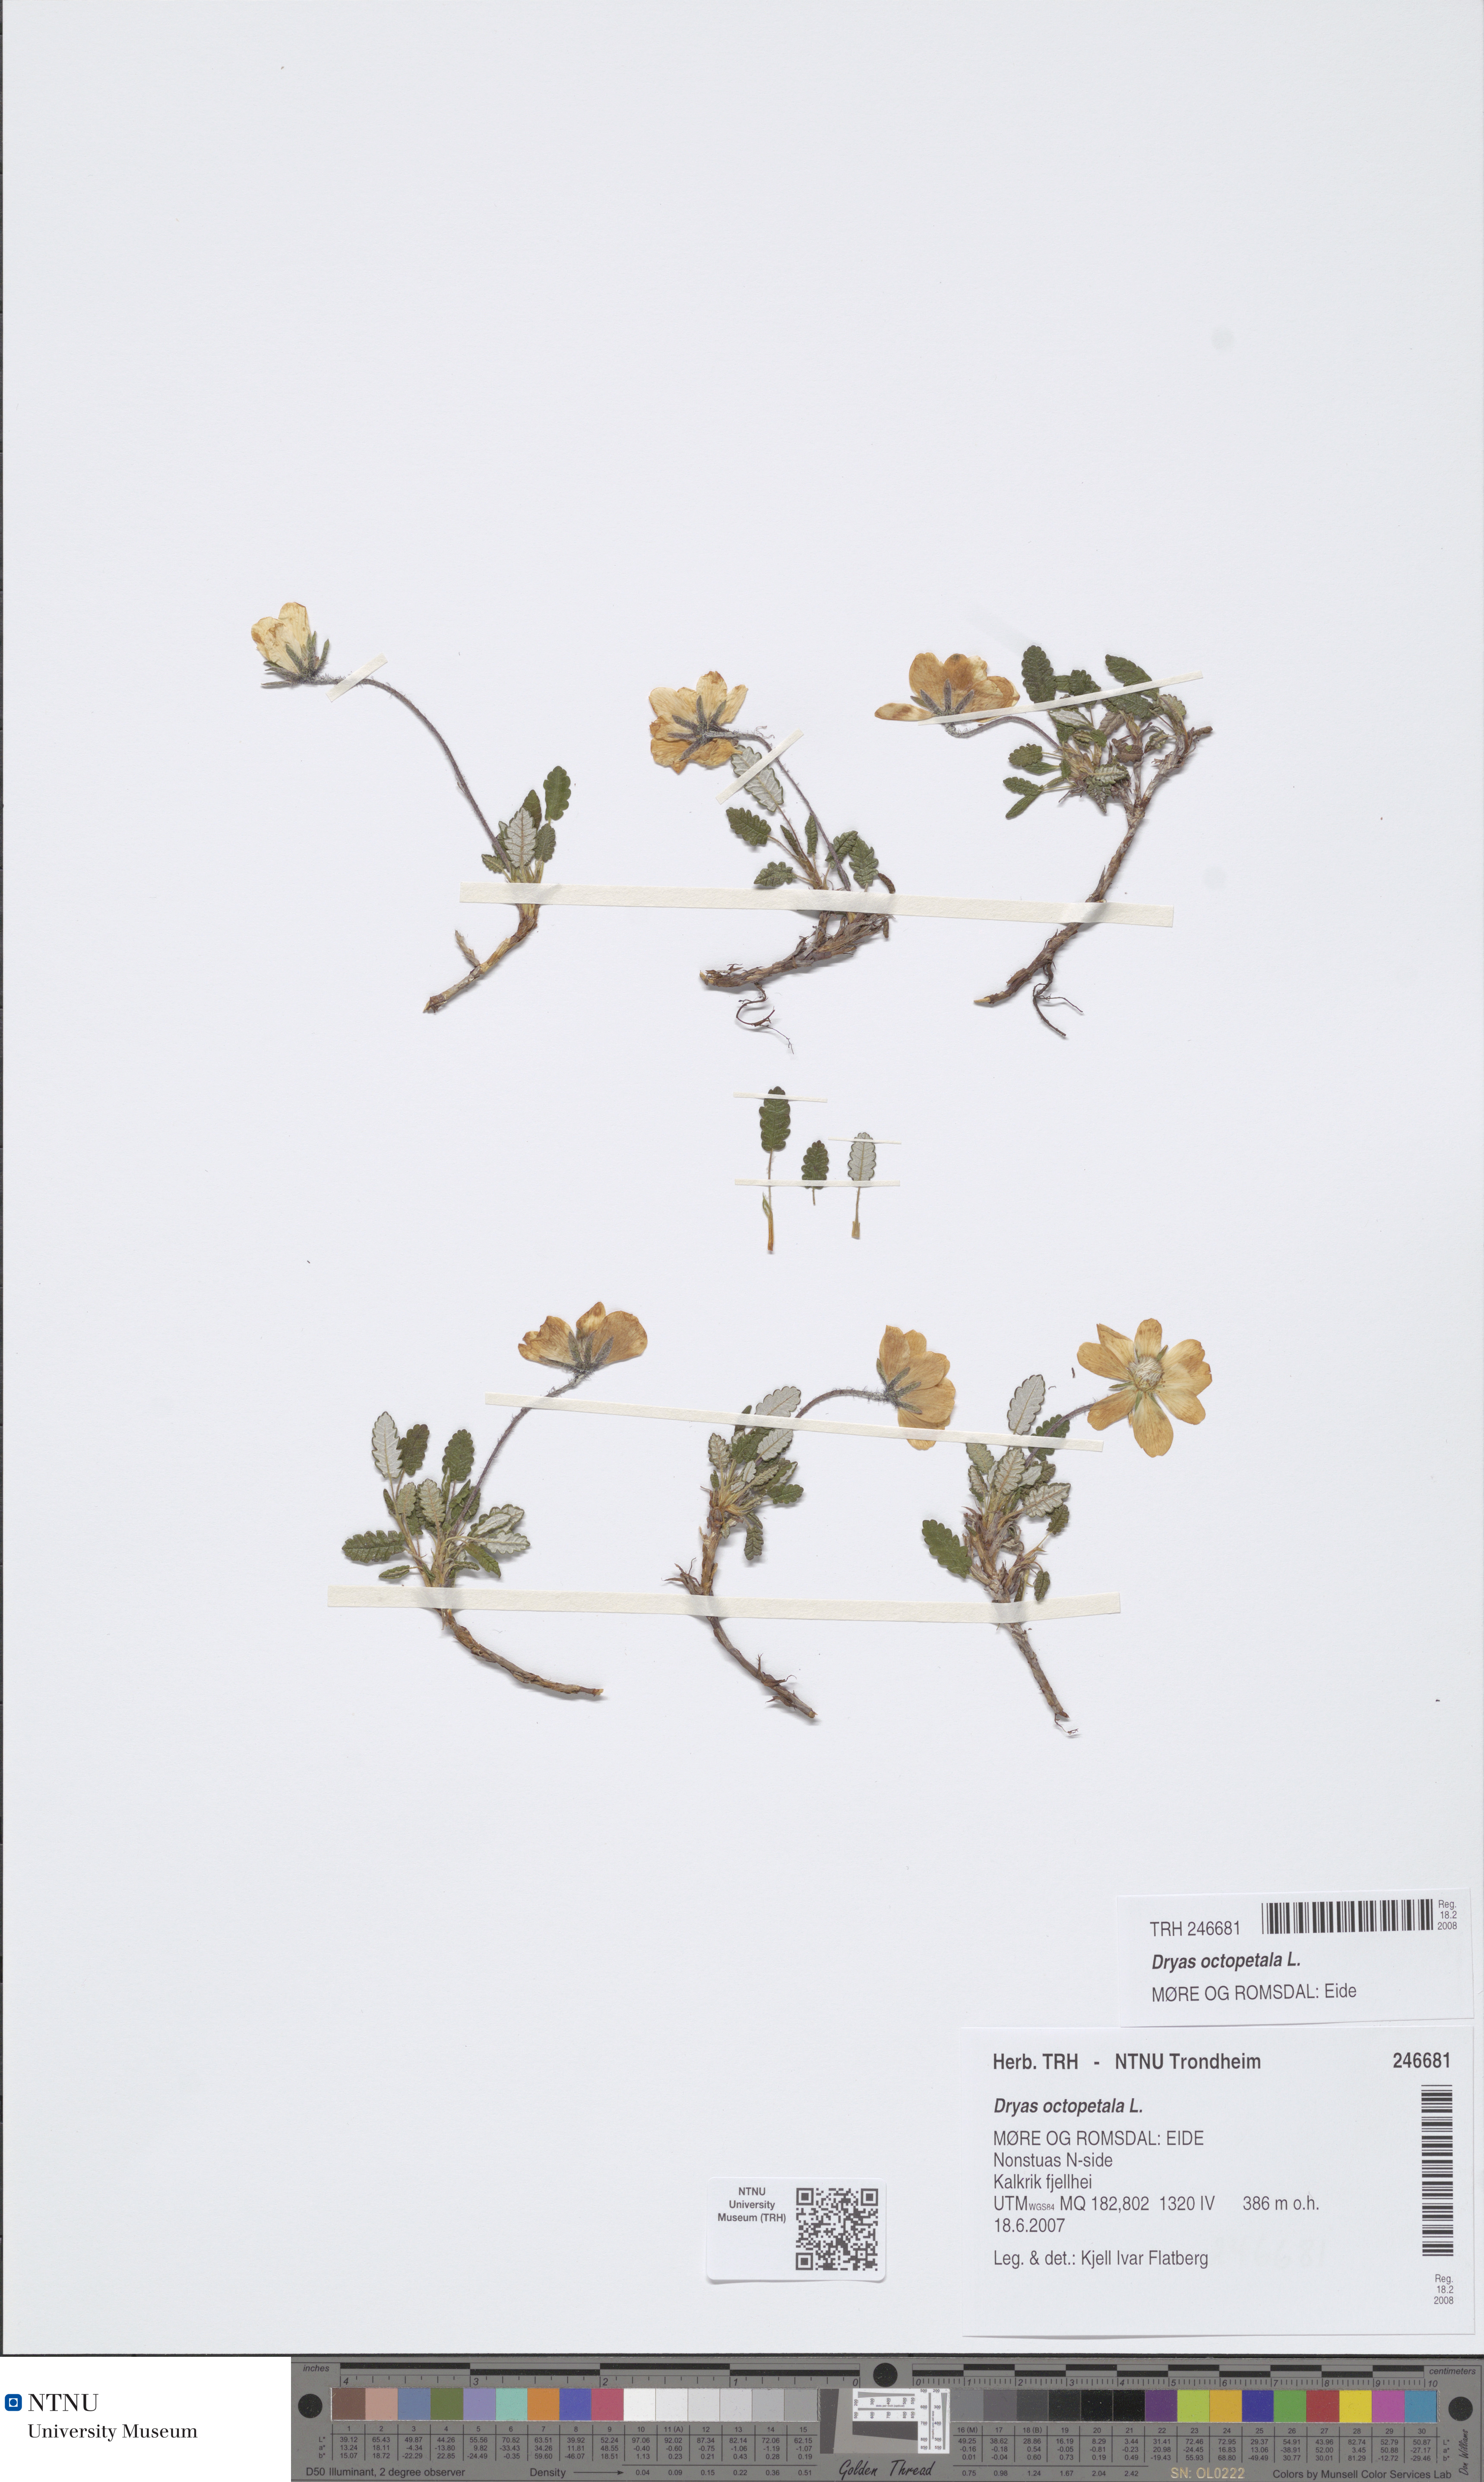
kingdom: Plantae
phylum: Tracheophyta
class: Magnoliopsida
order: Rosales
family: Rosaceae
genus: Dryas
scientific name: Dryas octopetala
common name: Eight-petal mountain-avens
